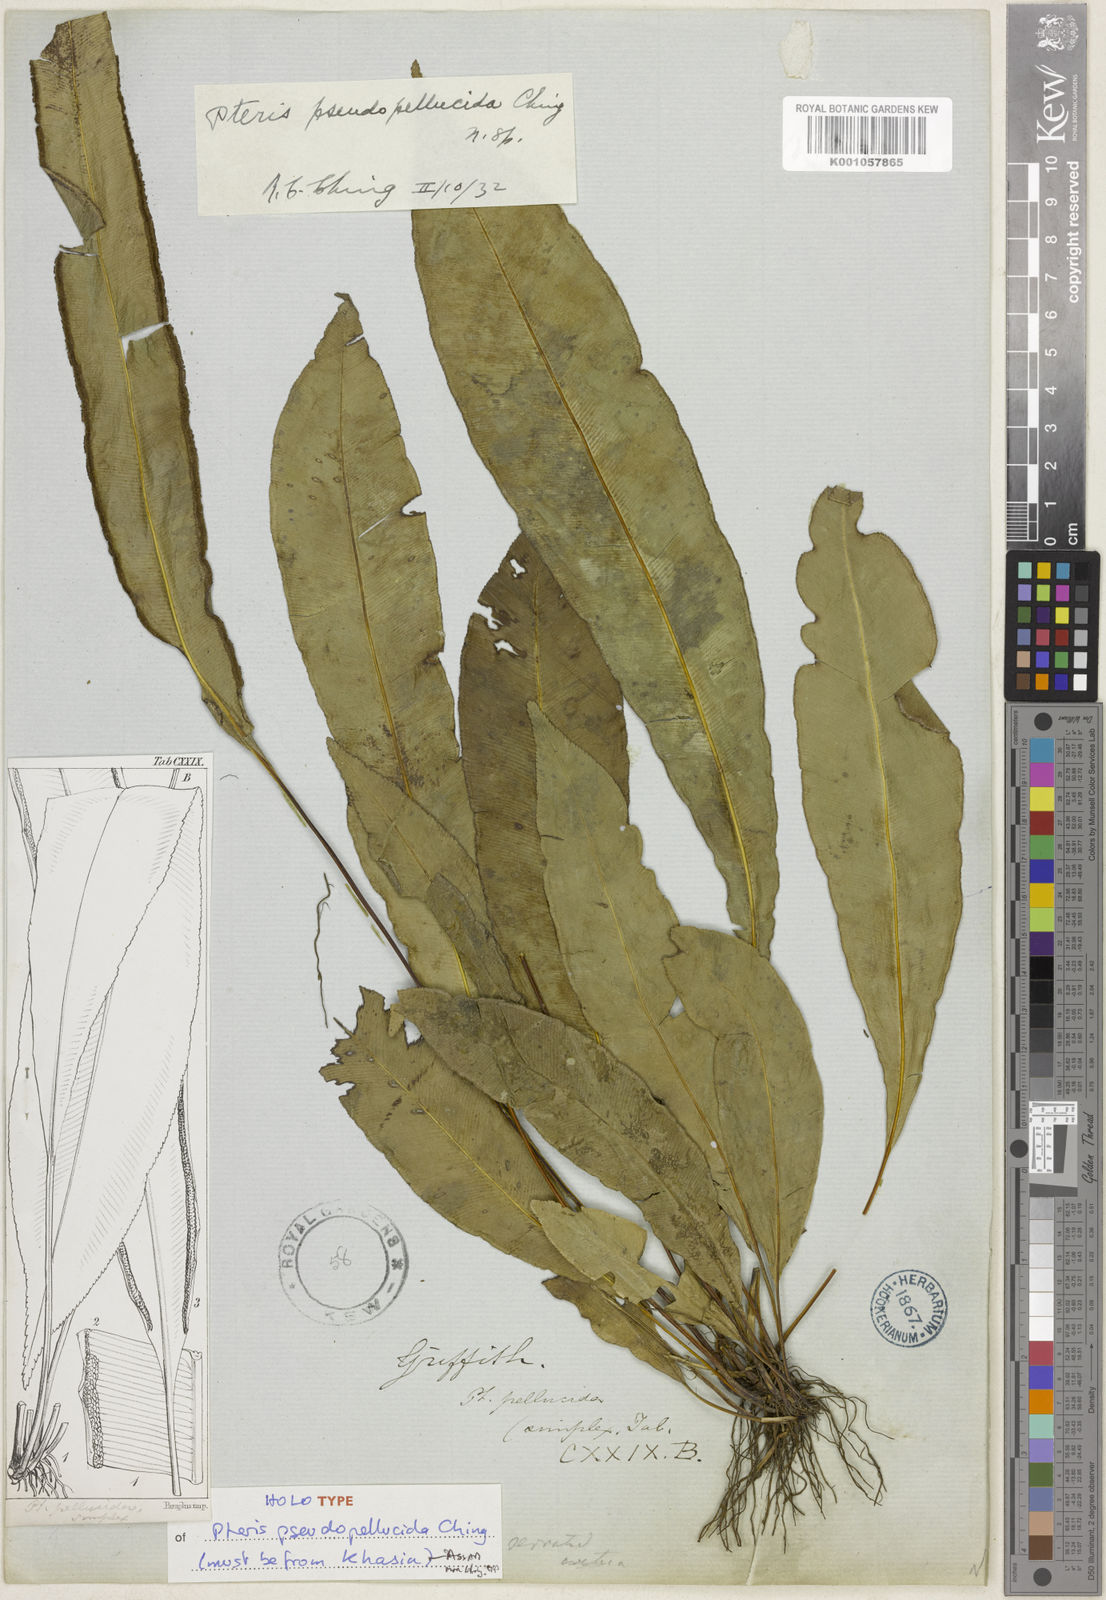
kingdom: Plantae
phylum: Tracheophyta
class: Polypodiopsida
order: Polypodiales
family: Pteridaceae
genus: Pteris
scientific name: Pteris pseudopellucida
